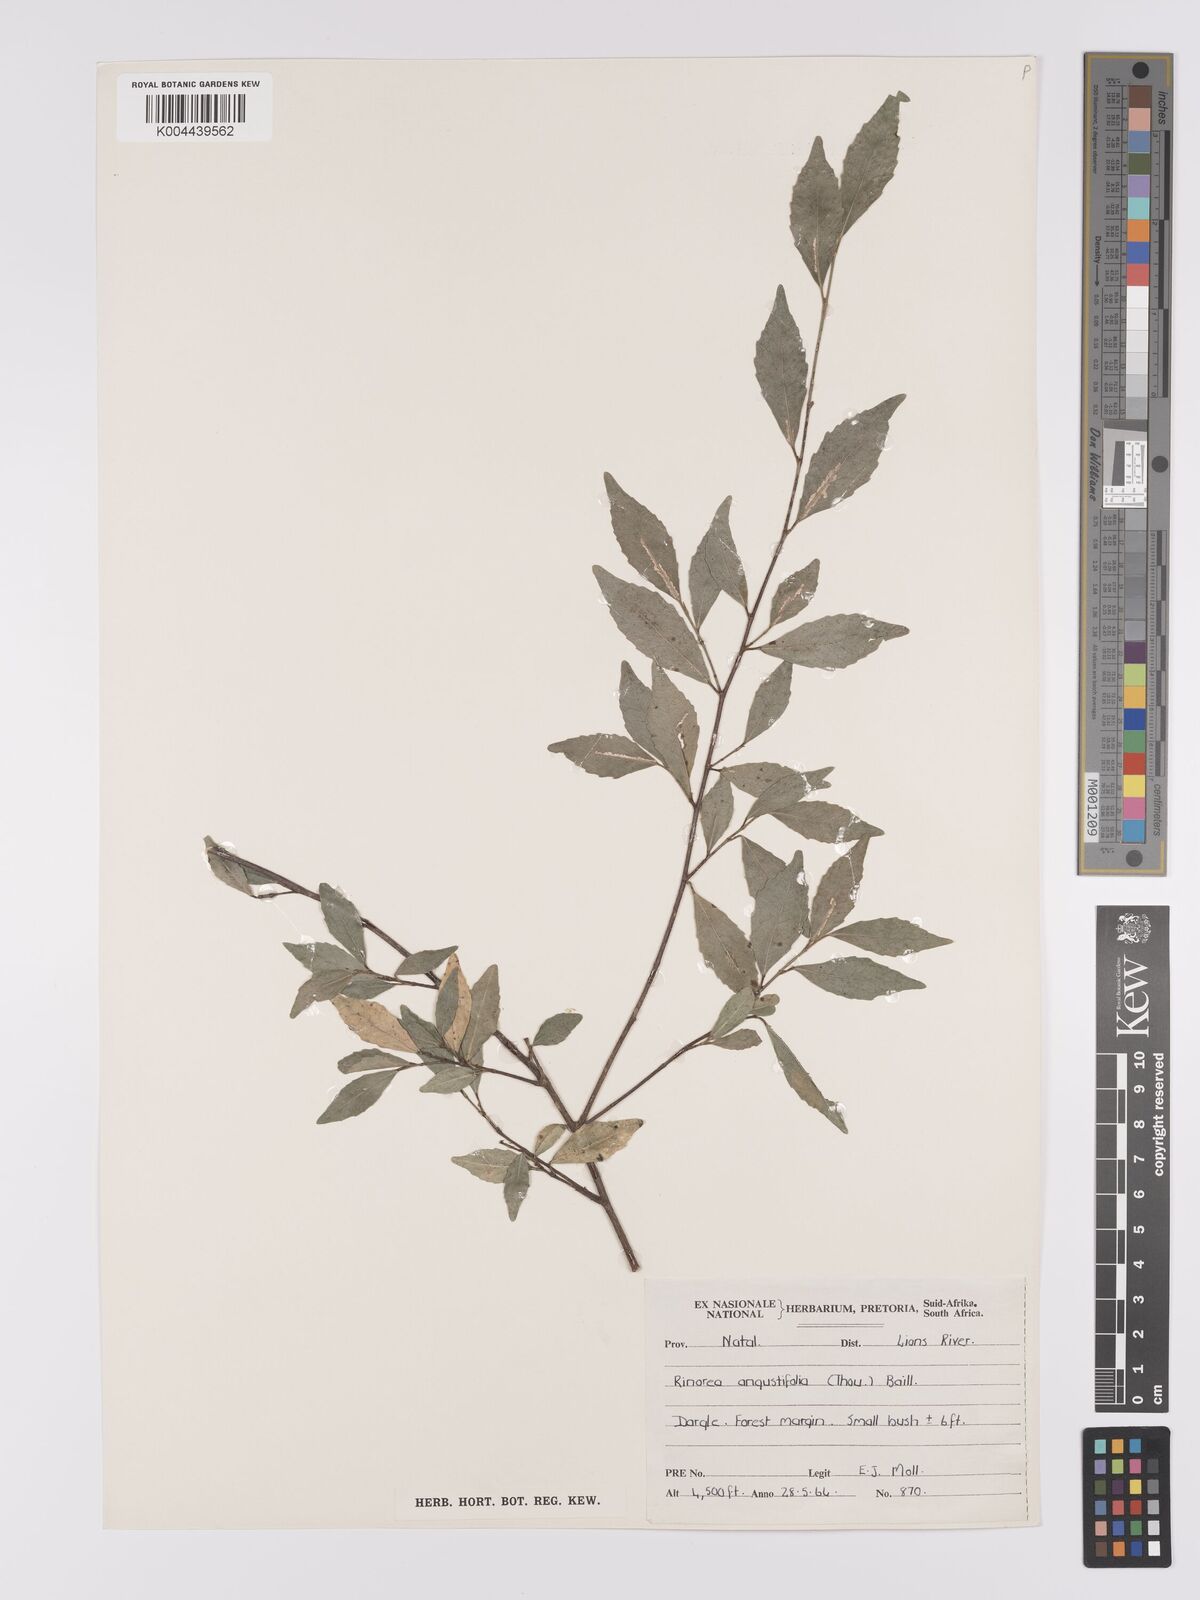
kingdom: Plantae
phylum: Tracheophyta
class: Magnoliopsida
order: Malpighiales
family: Violaceae
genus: Rinorea
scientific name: Rinorea angustifolia
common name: White violet-bush
